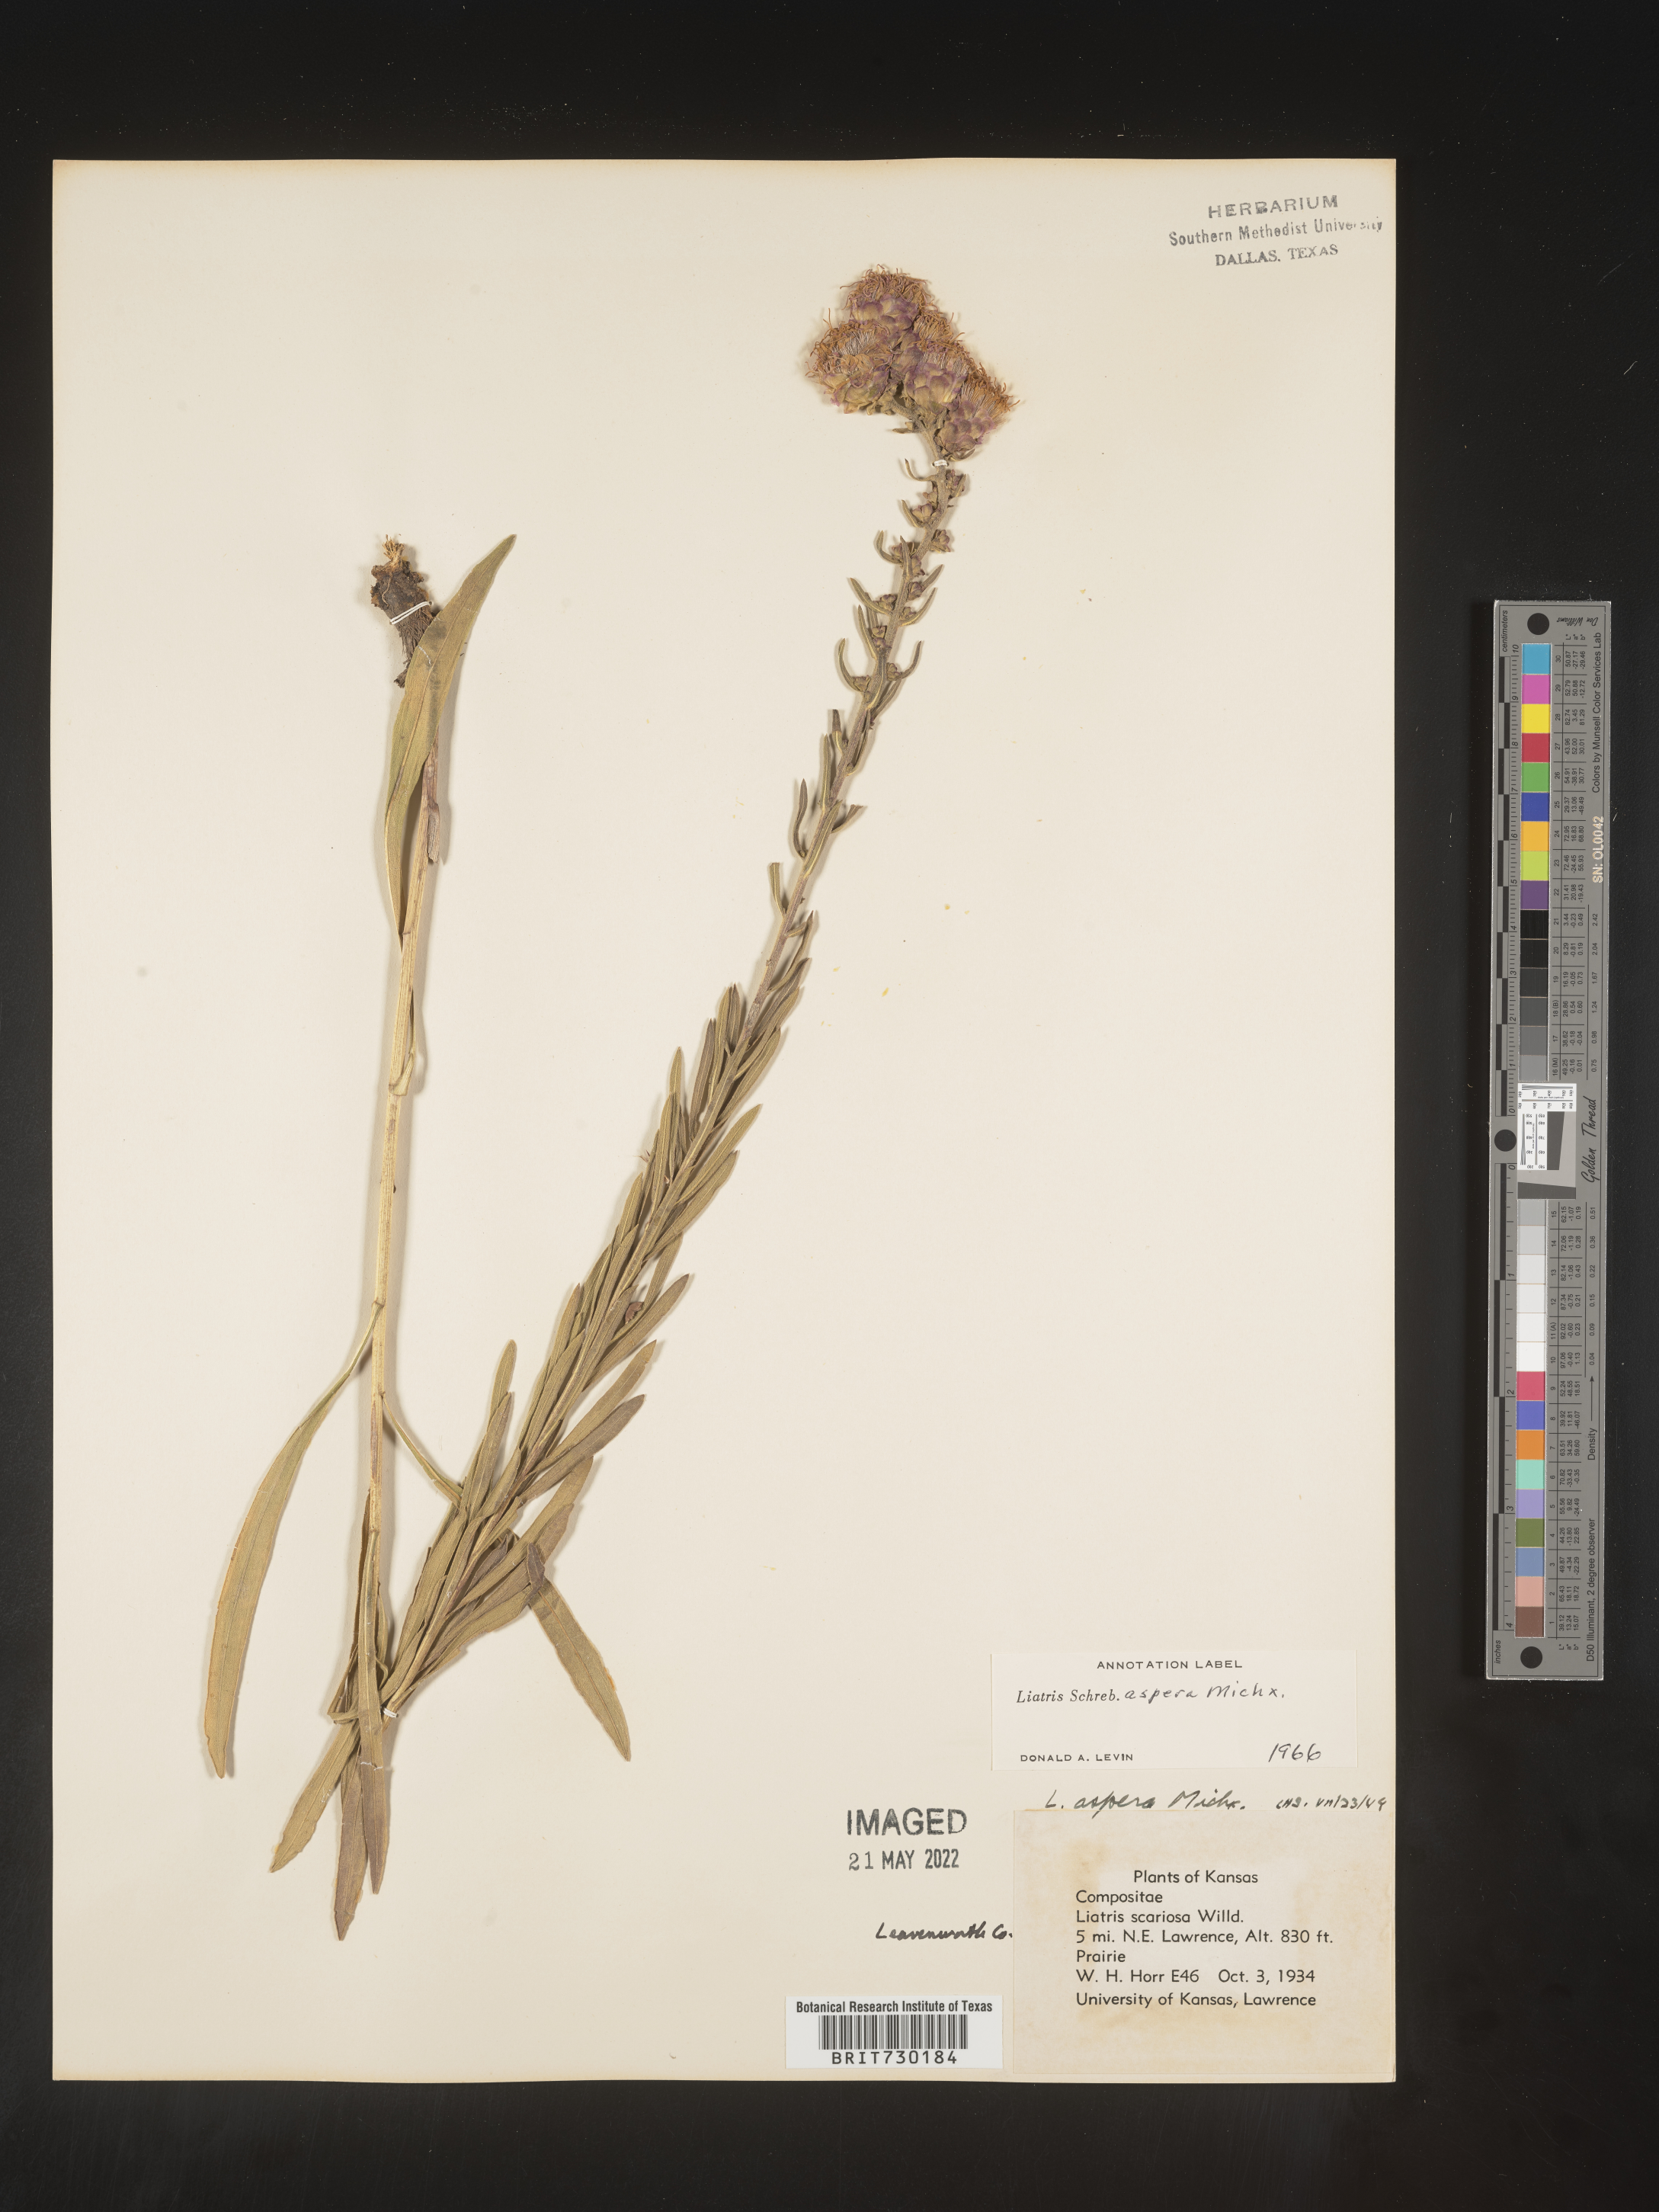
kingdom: Plantae
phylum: Tracheophyta
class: Magnoliopsida
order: Asterales
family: Asteraceae
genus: Liatris
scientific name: Liatris aspera
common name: Lacerate blazing-star
